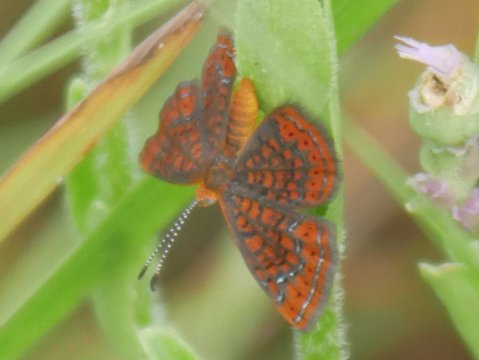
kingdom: Animalia
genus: Calephelis
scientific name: Calephelis virginiensis
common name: Little Metalmark
